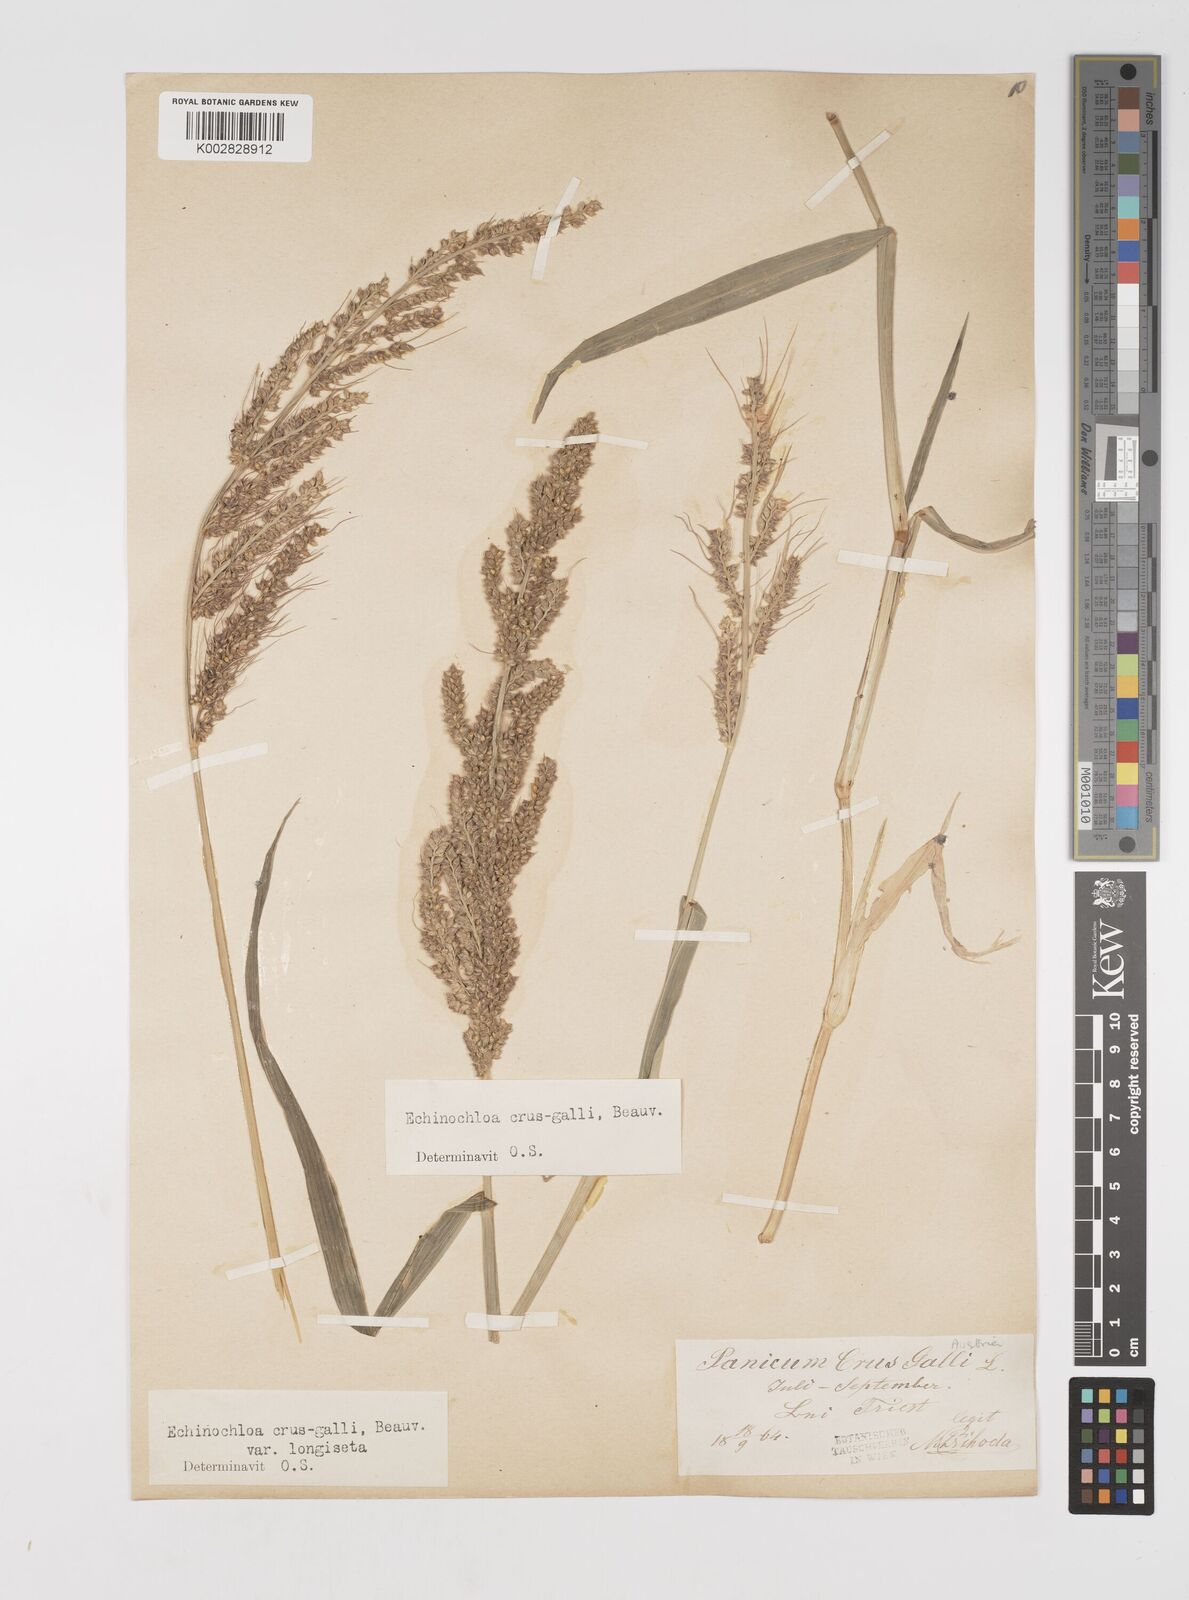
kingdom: Plantae
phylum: Tracheophyta
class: Liliopsida
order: Poales
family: Poaceae
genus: Echinochloa
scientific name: Echinochloa crus-galli
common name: Cockspur
